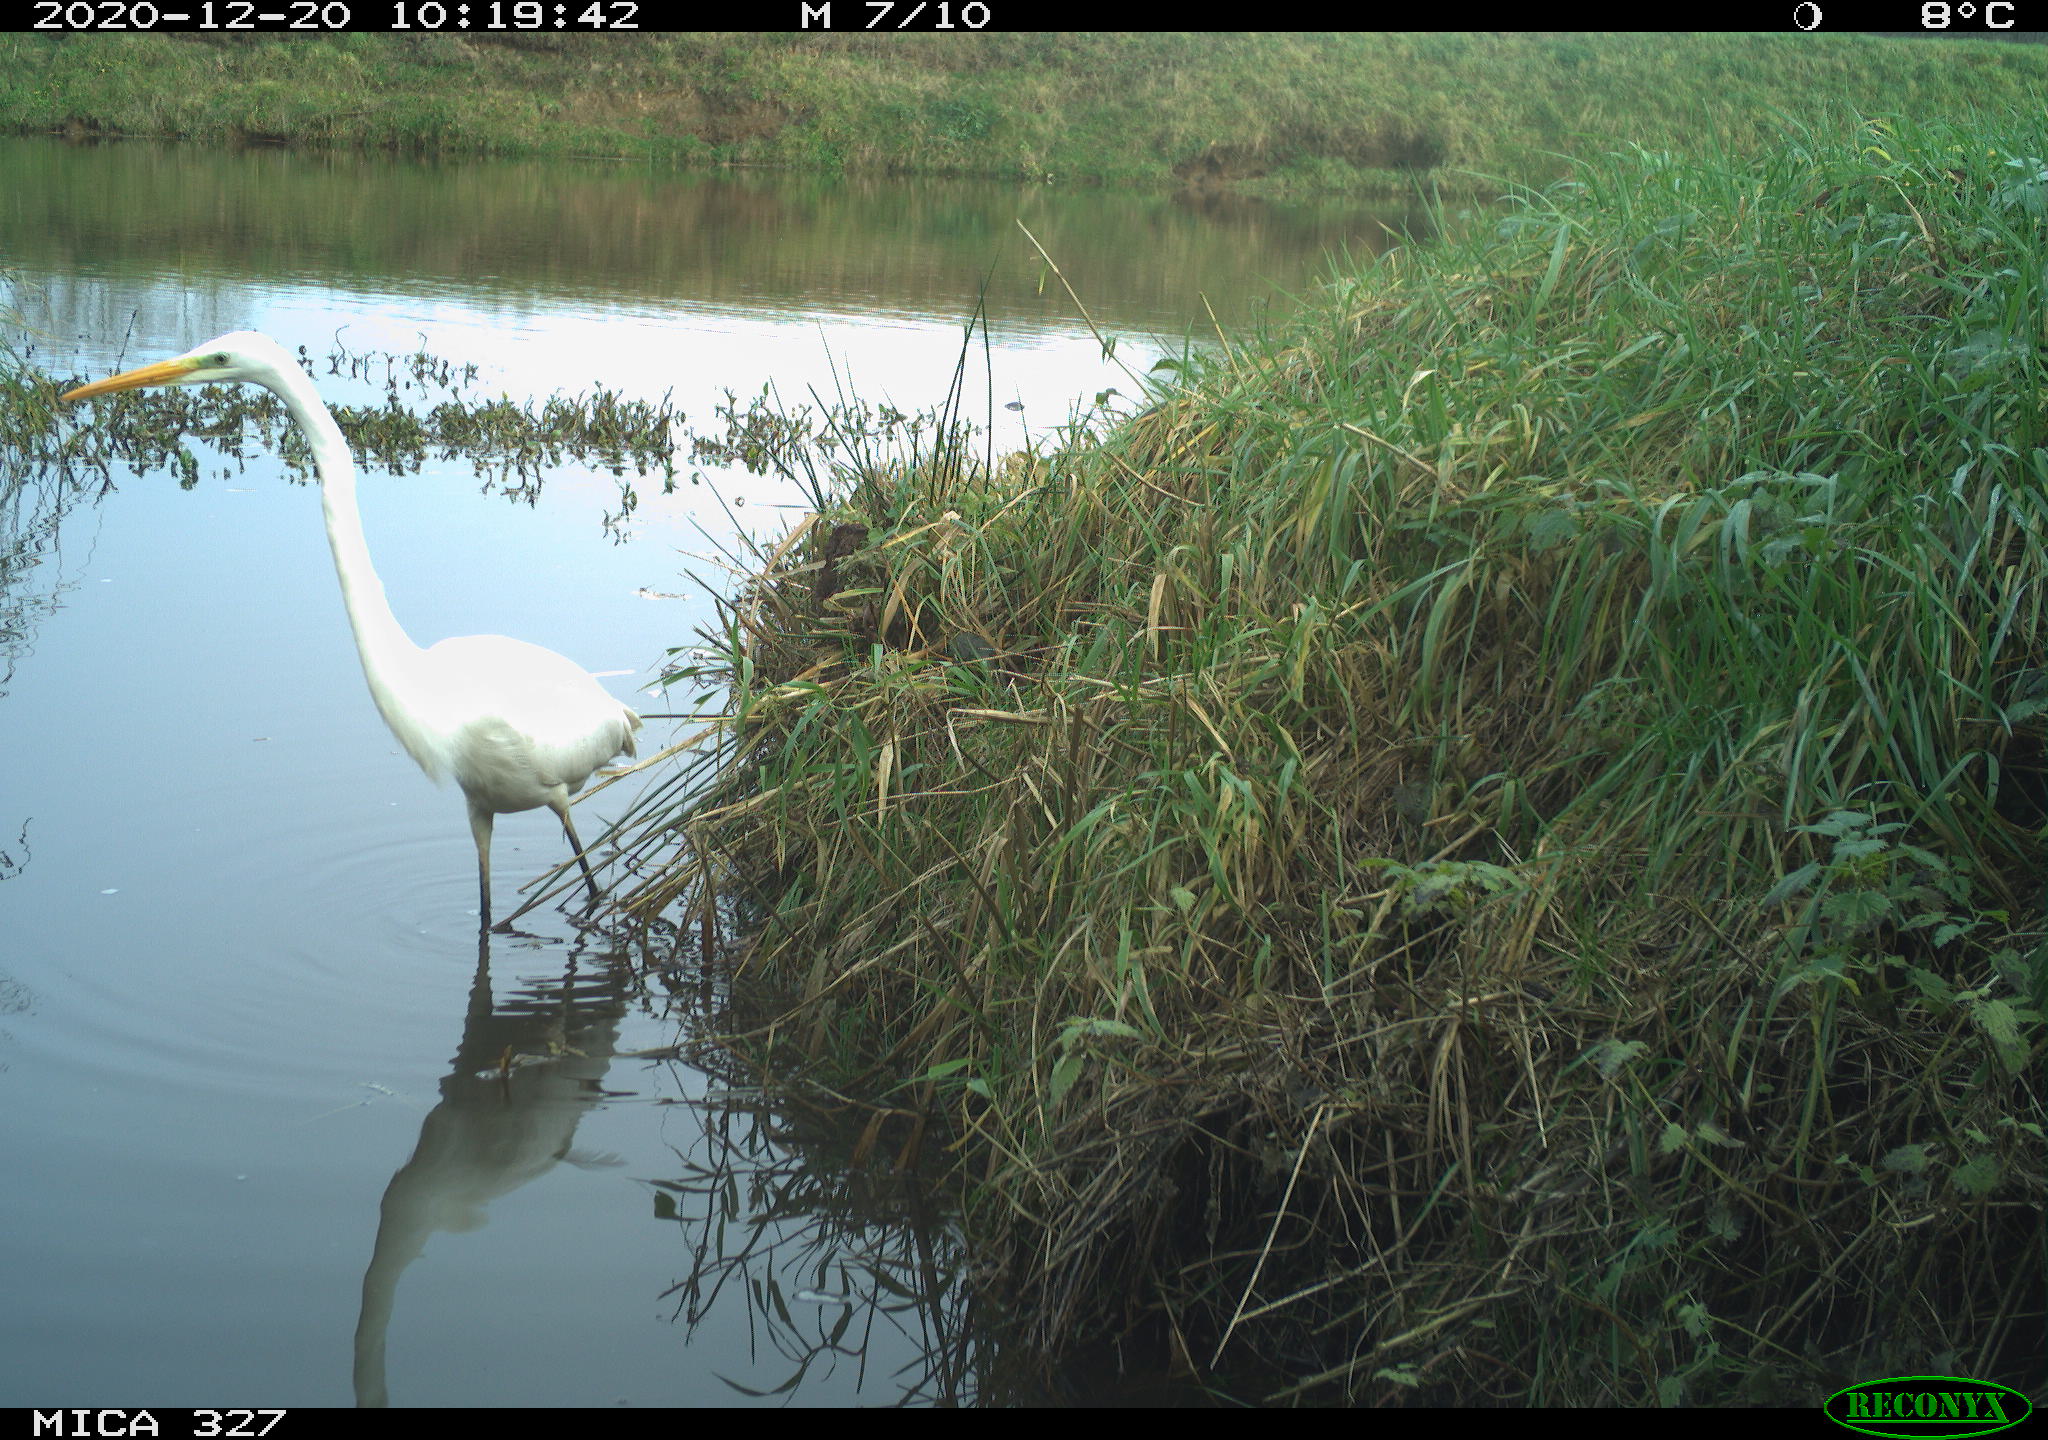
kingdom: Animalia
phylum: Chordata
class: Aves
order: Pelecaniformes
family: Ardeidae
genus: Ardea
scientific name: Ardea alba
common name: Great egret
